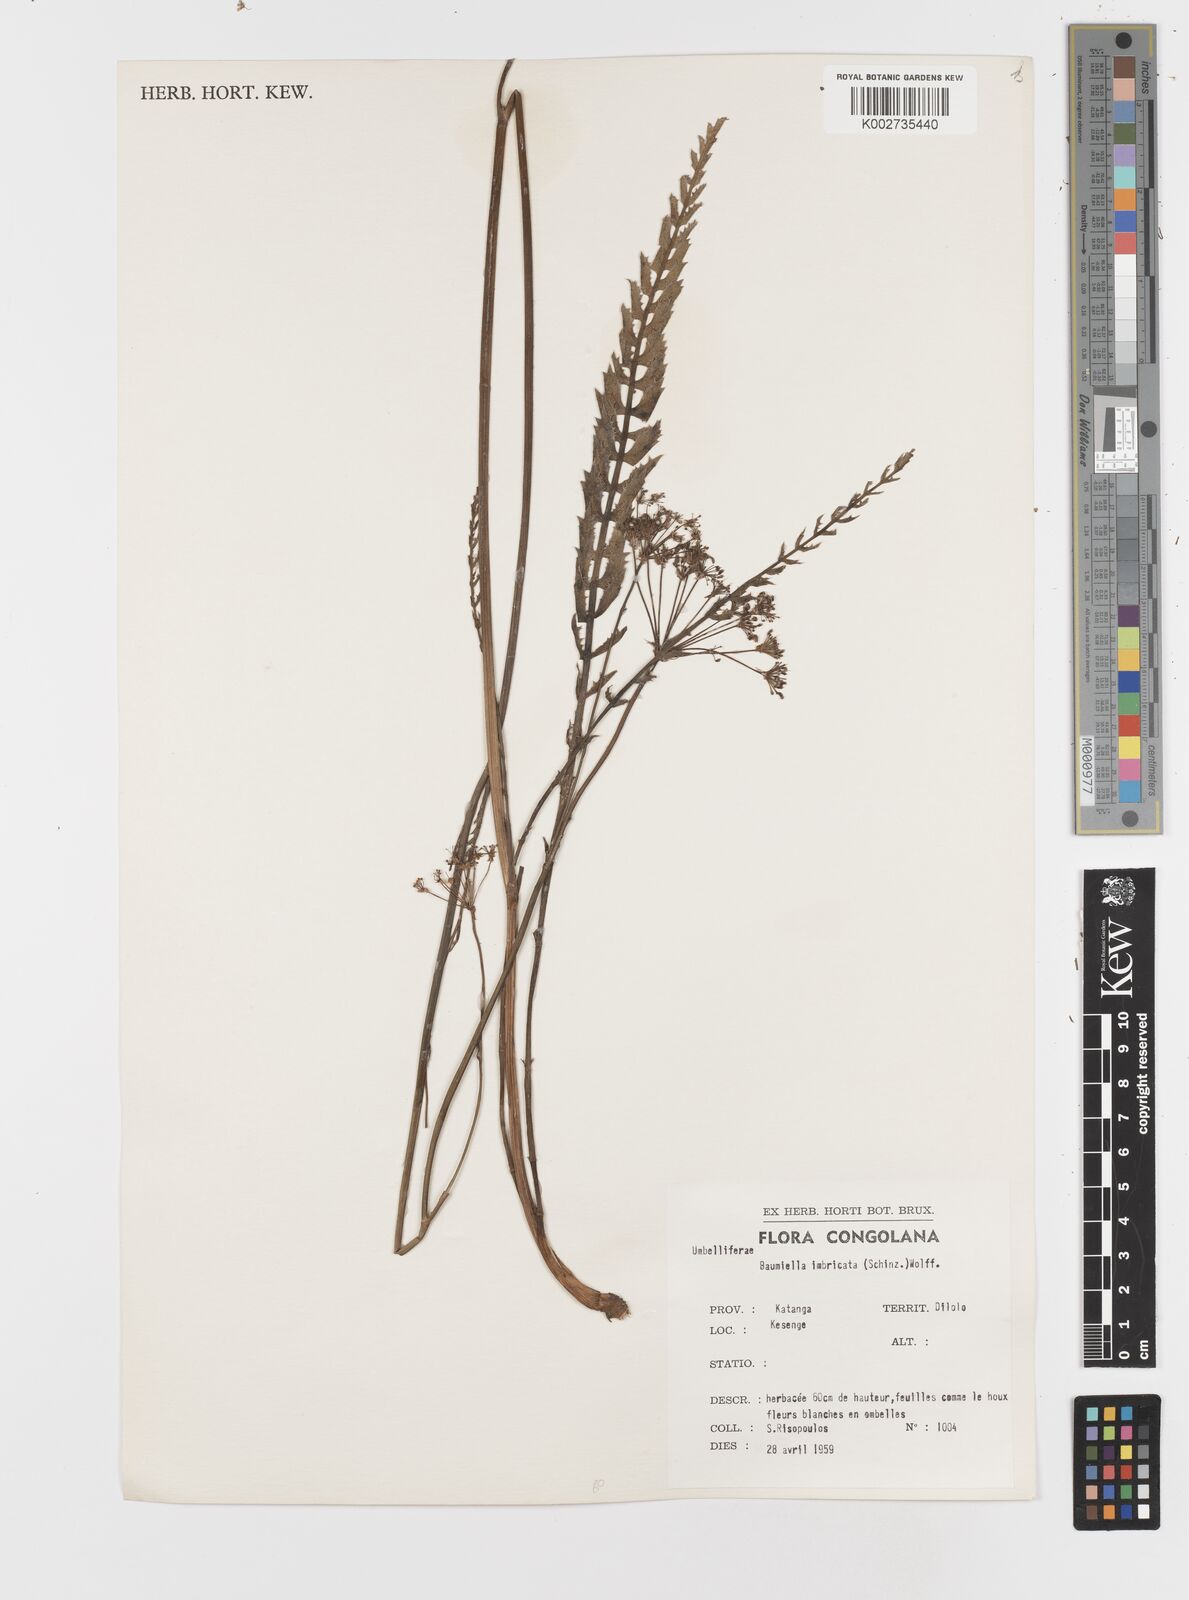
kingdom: Plantae
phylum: Tracheophyta
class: Magnoliopsida
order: Apiales
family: Apiaceae
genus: Berula
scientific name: Berula imbricata
